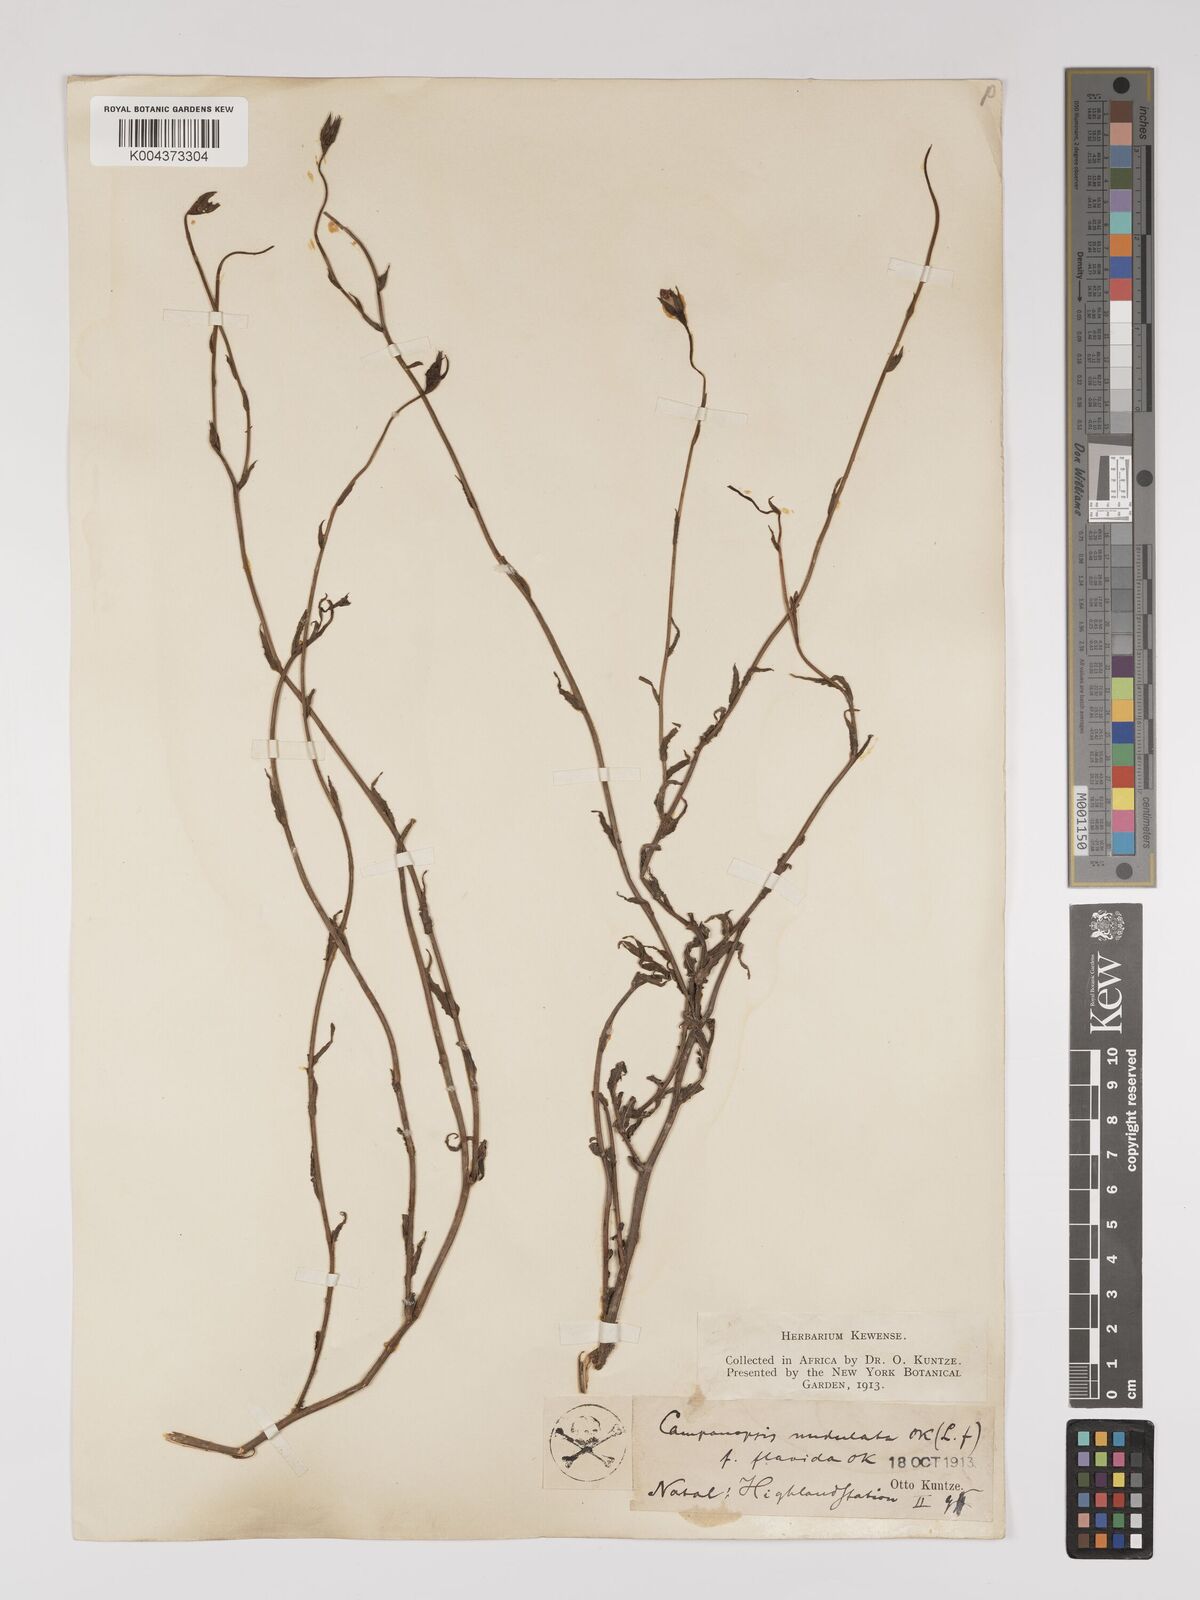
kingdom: Plantae
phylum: Tracheophyta
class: Magnoliopsida
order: Asterales
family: Campanulaceae
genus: Wahlenbergia
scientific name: Wahlenbergia undulata
